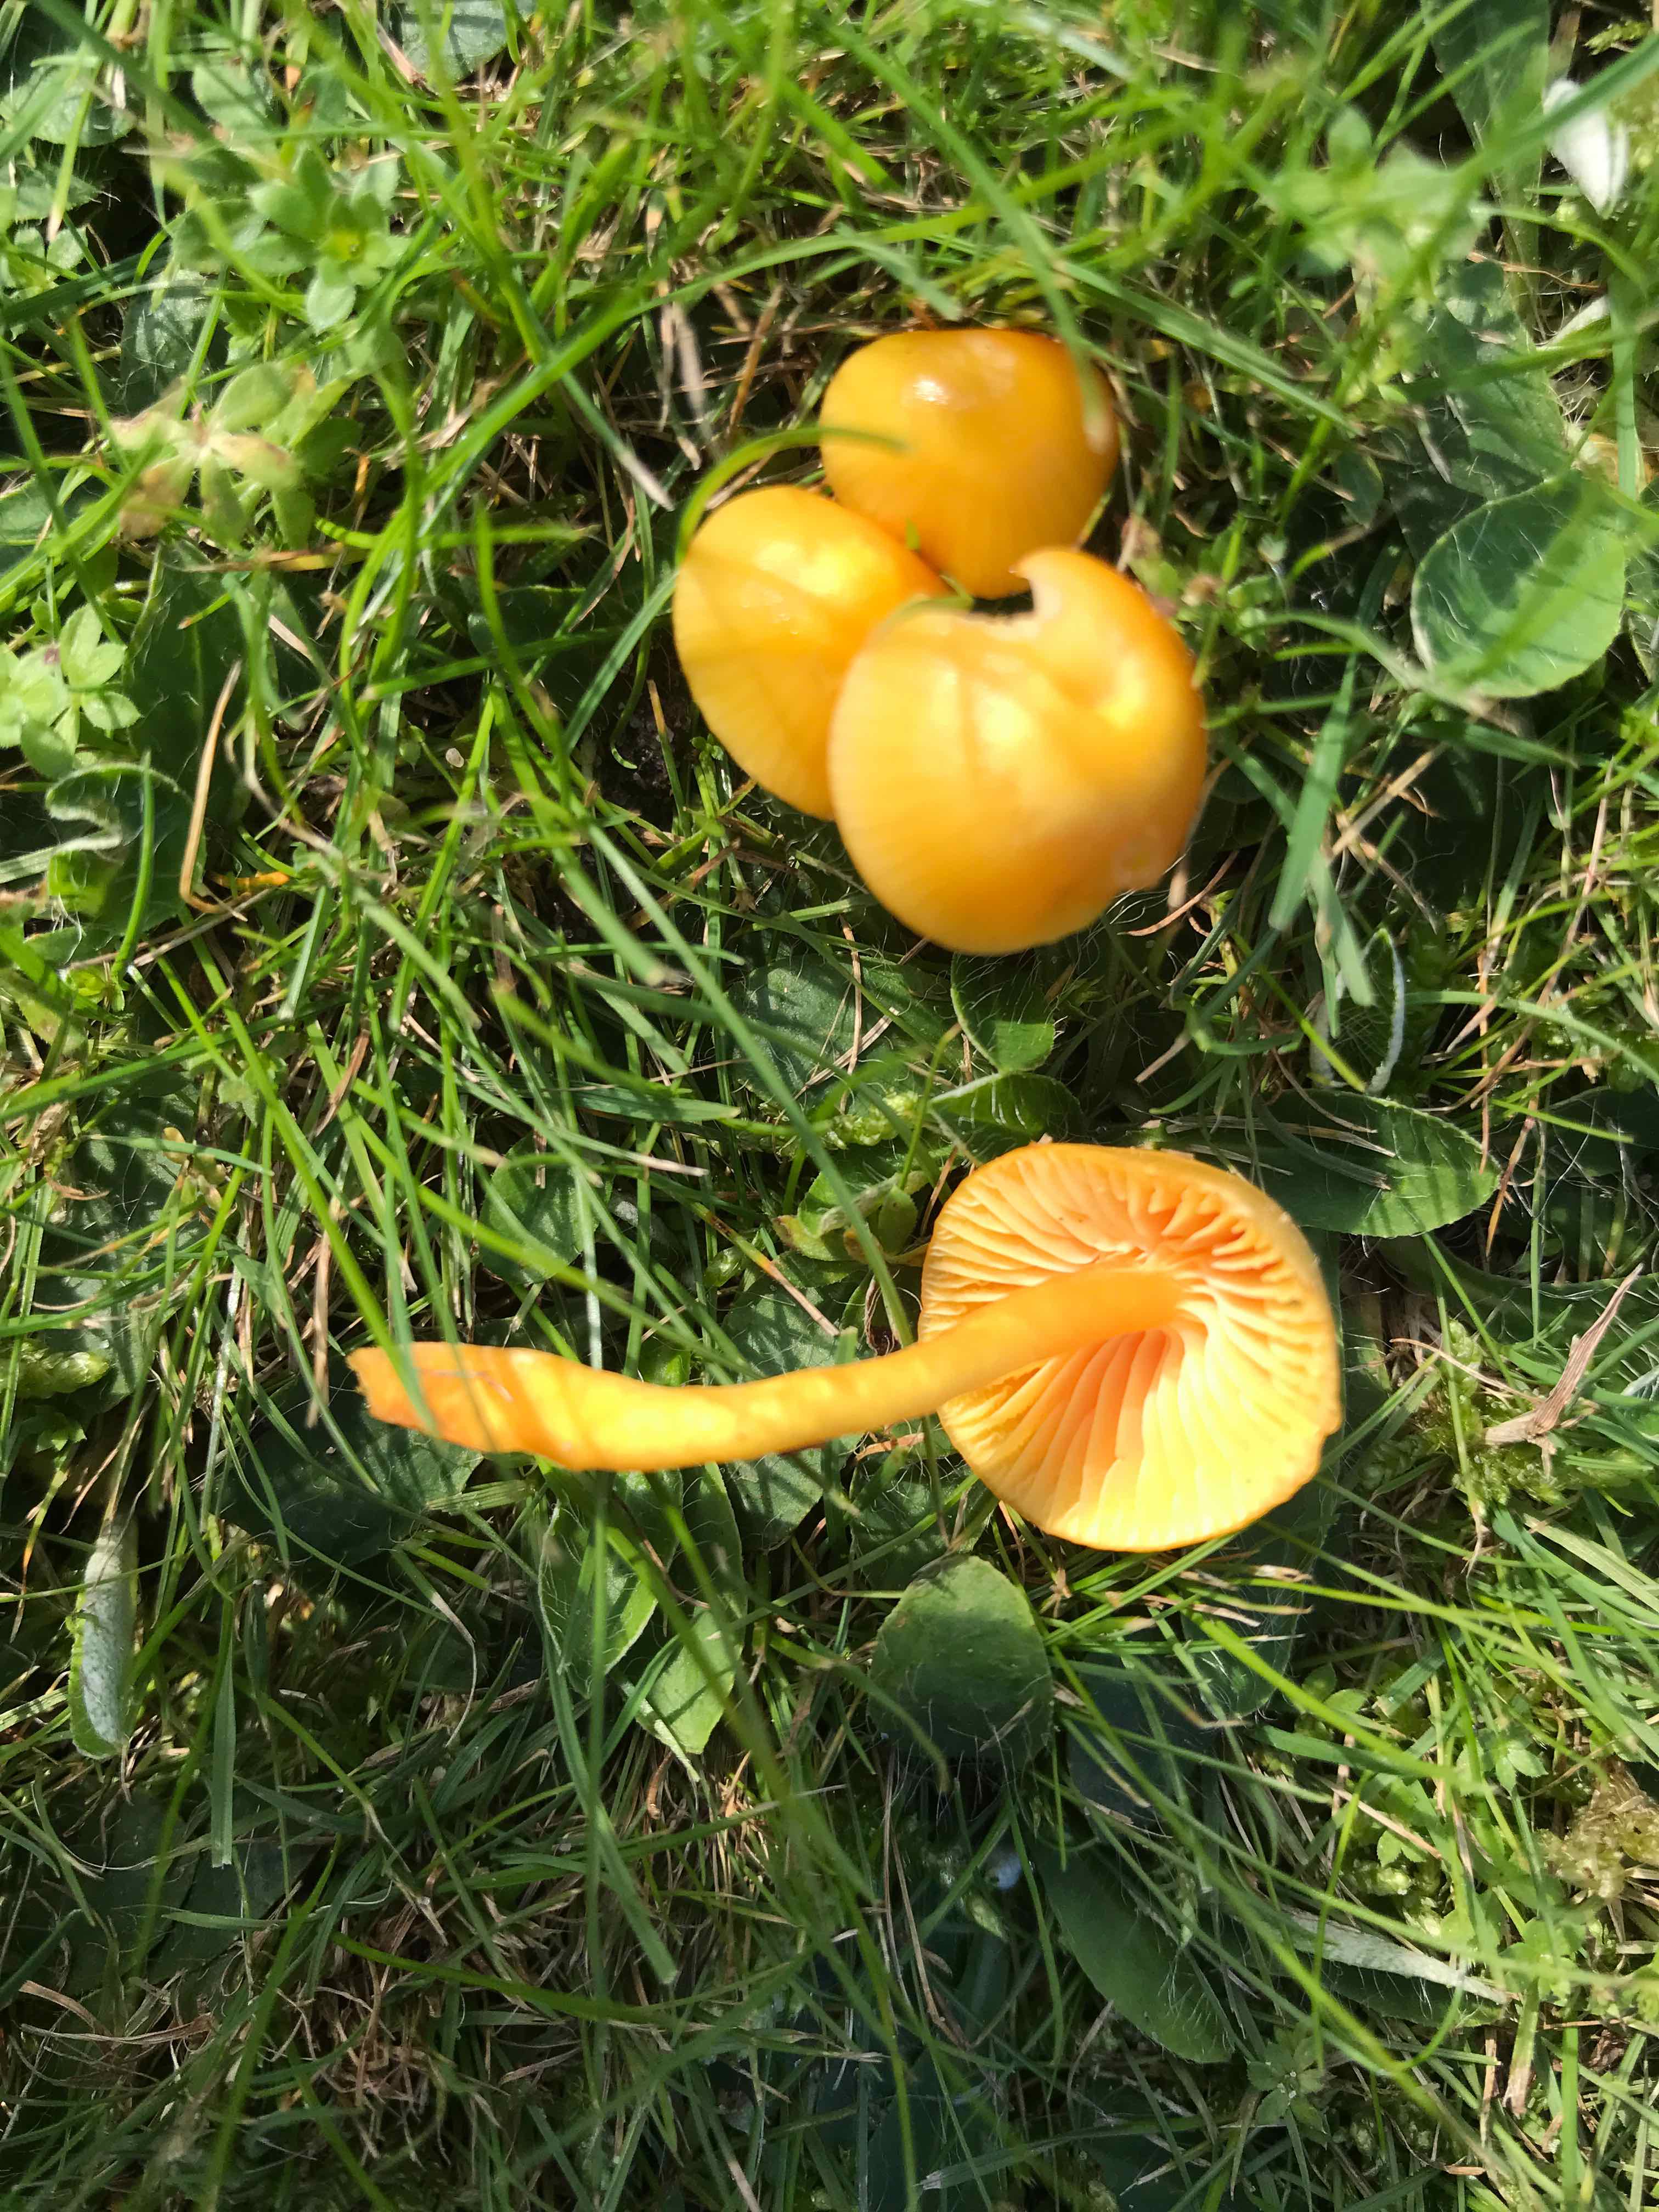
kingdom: Fungi
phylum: Basidiomycota
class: Agaricomycetes
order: Agaricales
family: Hygrophoraceae
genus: Hygrocybe
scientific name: Hygrocybe ceracea
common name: voksgul vokshat
